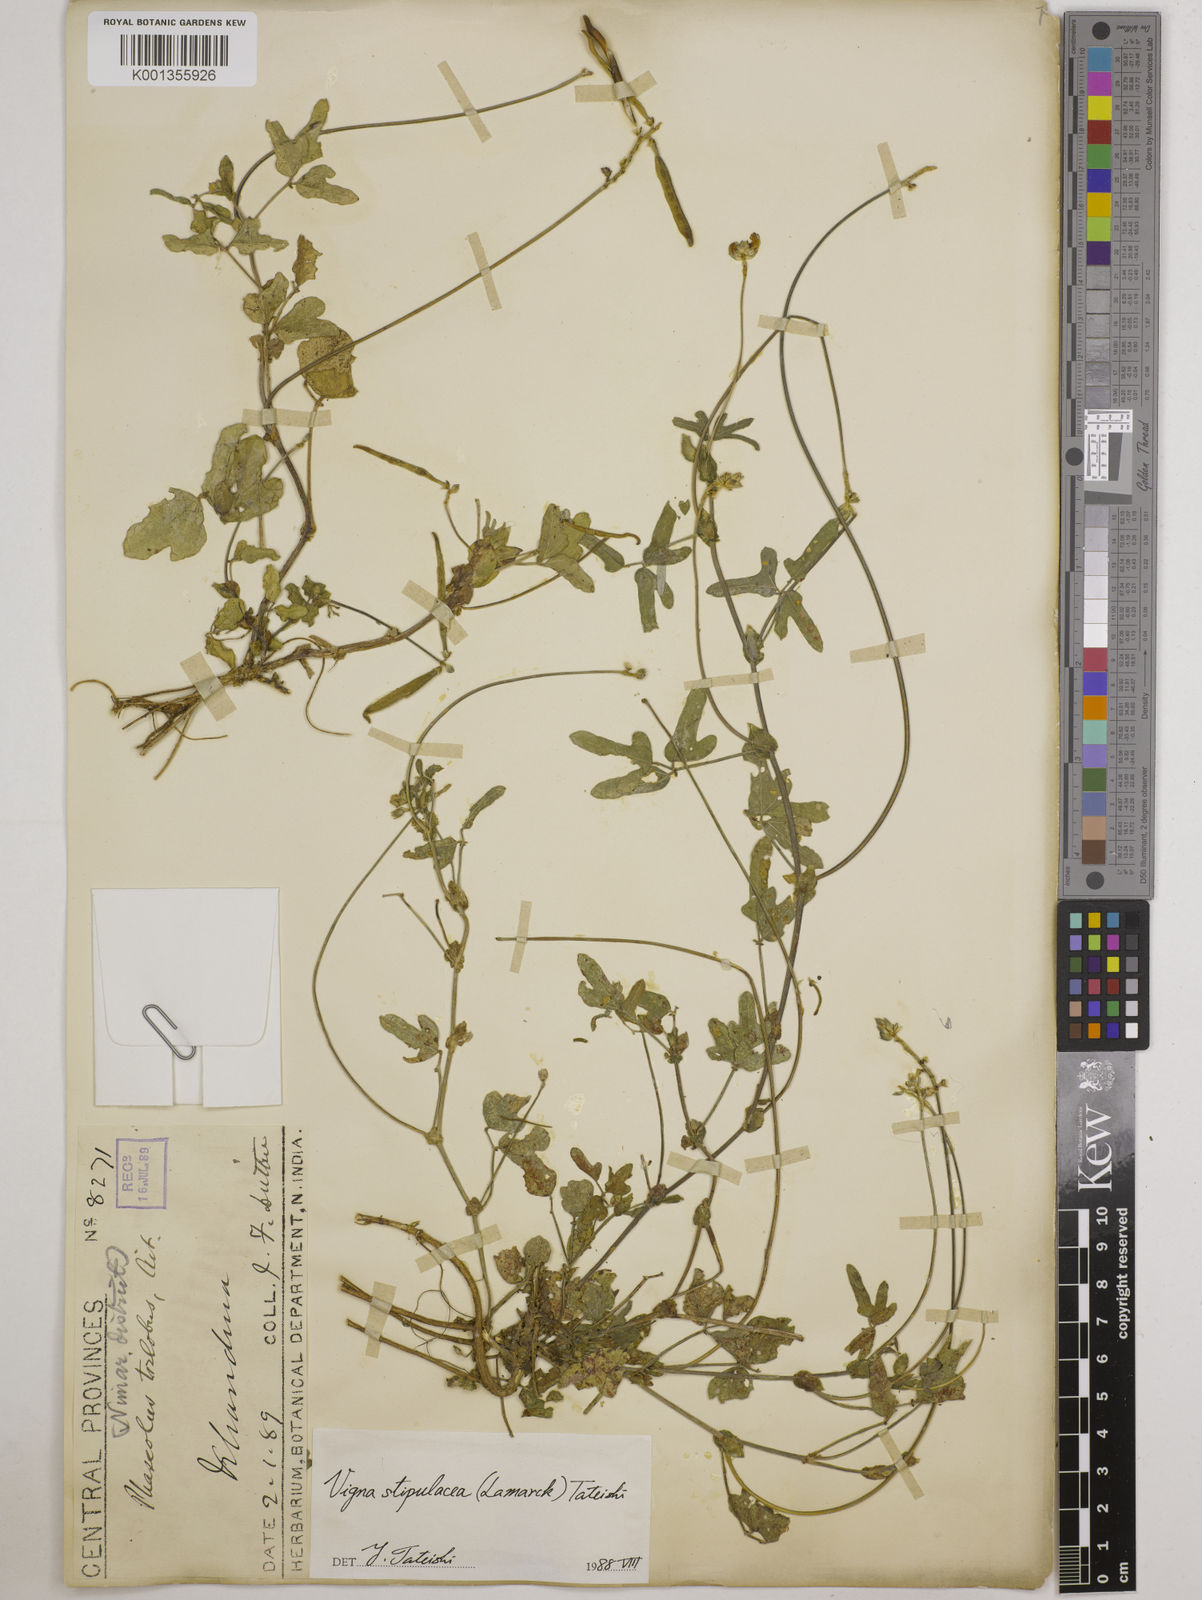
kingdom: Plantae
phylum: Tracheophyta
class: Magnoliopsida
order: Fabales
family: Fabaceae
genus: Pueraria
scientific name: Pueraria montana
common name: Kudzu
